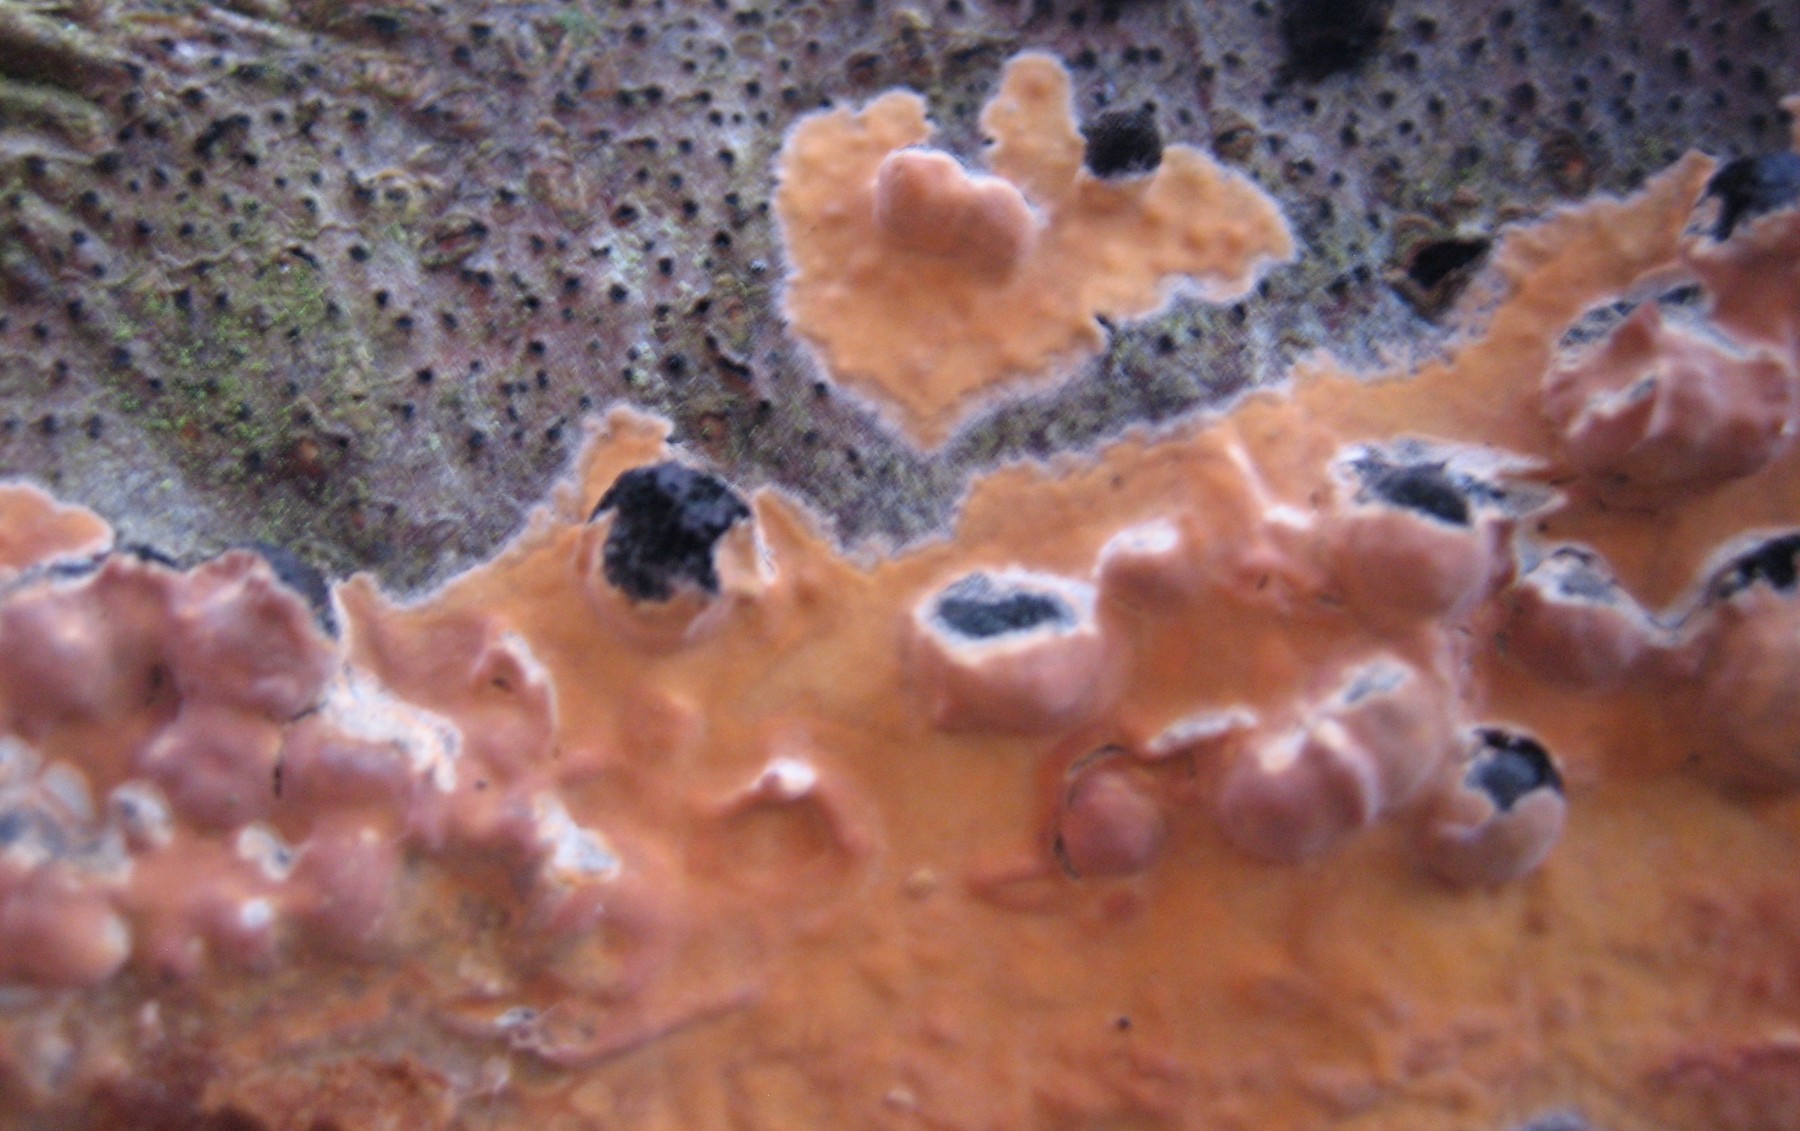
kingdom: Fungi
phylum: Basidiomycota
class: Agaricomycetes
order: Russulales
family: Peniophoraceae
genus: Peniophora
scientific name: Peniophora incarnata
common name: laksefarvet voksskind
